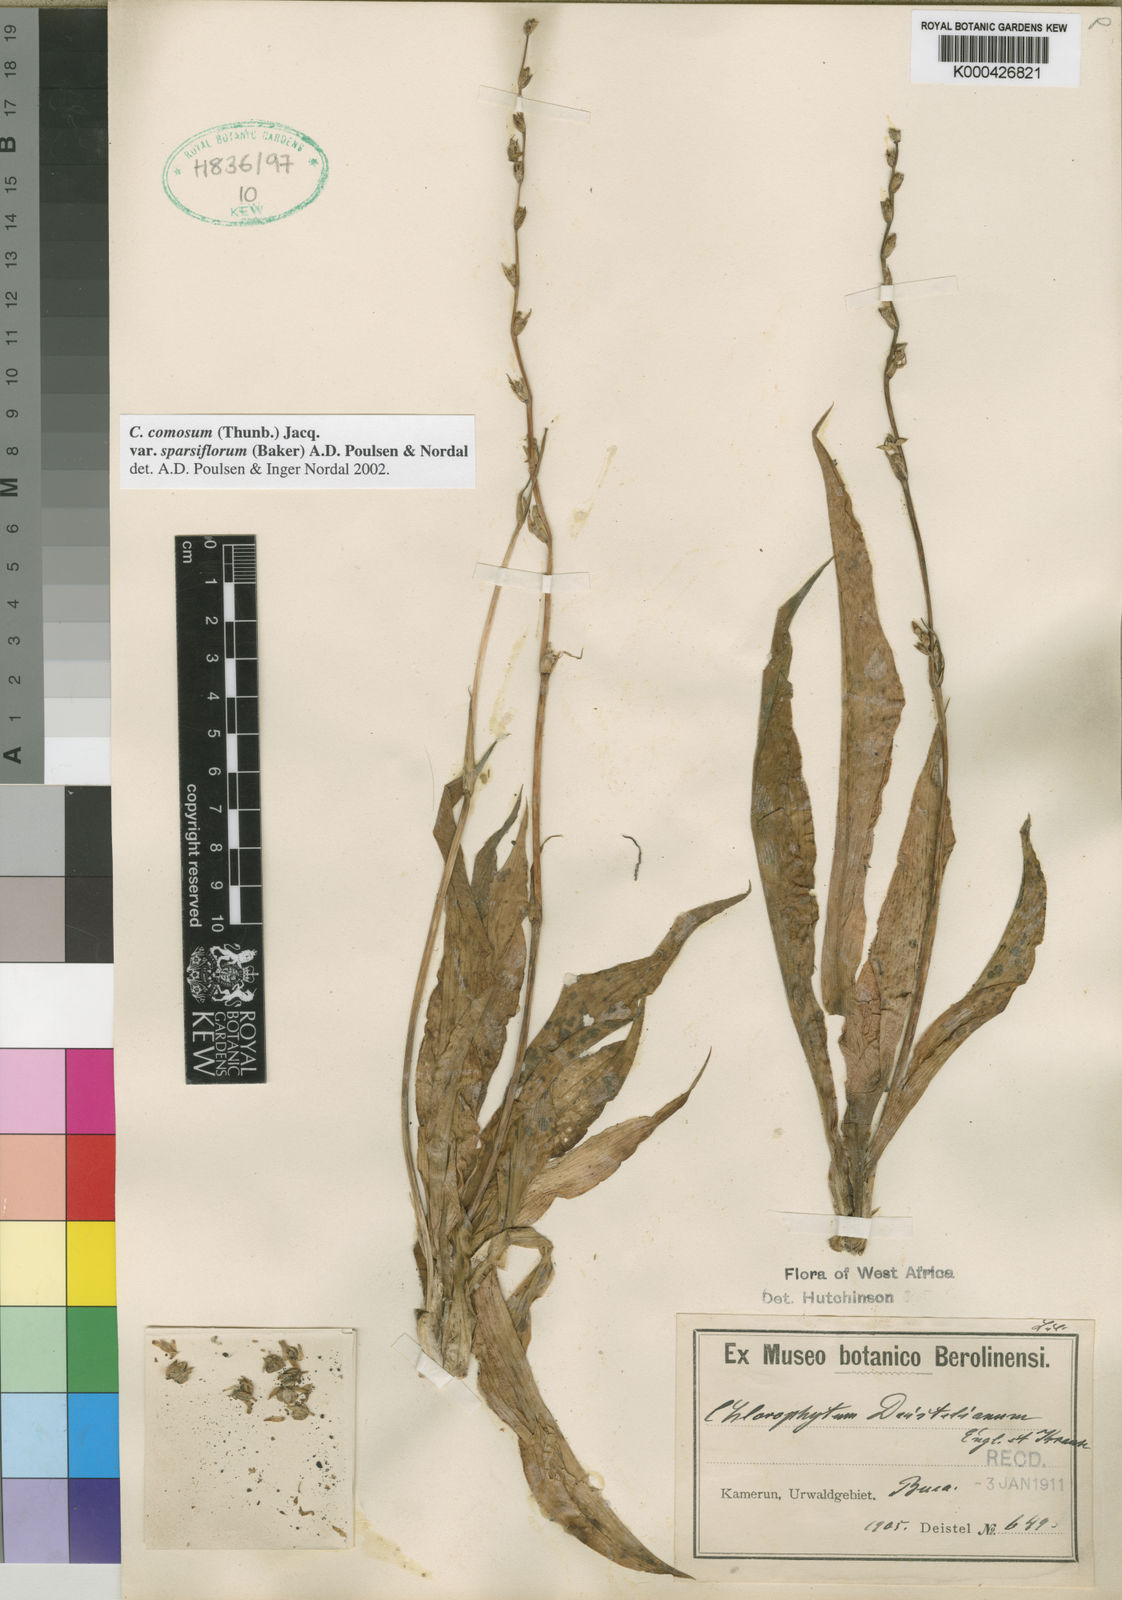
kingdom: Plantae
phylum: Tracheophyta
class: Liliopsida
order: Asparagales
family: Asparagaceae
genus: Chlorophytum
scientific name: Chlorophytum sparsiflorum
